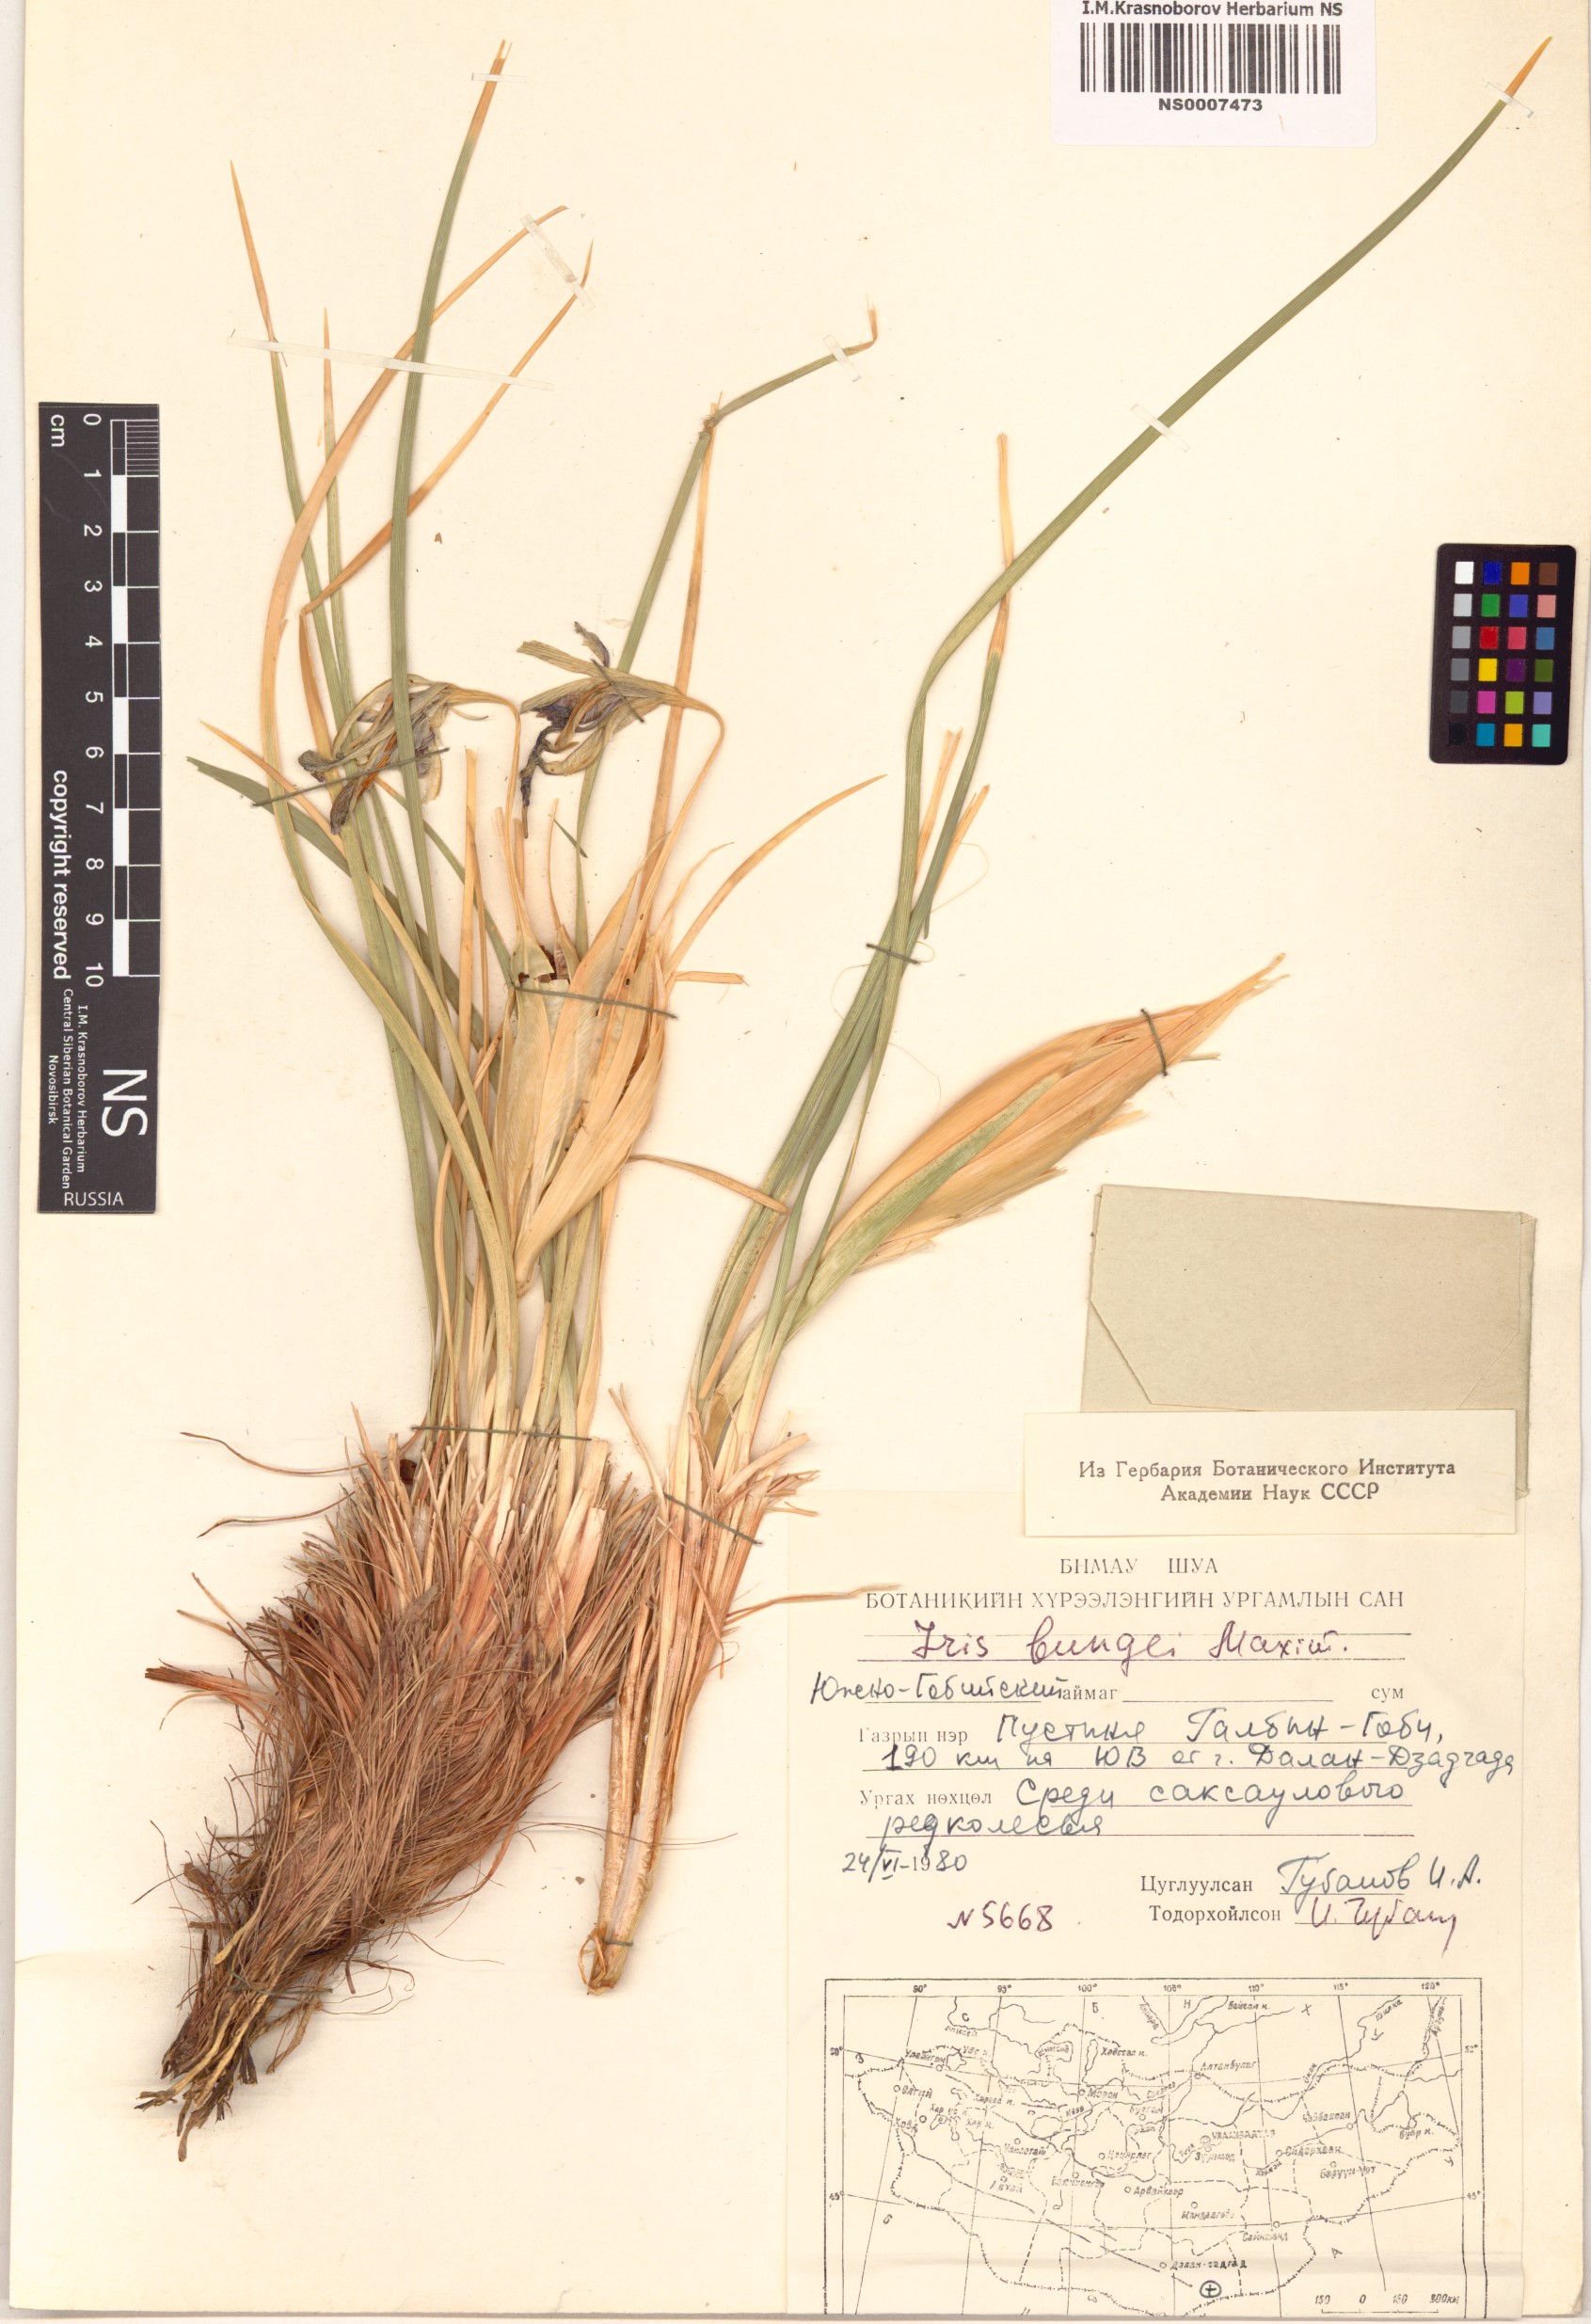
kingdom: Plantae
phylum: Tracheophyta
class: Liliopsida
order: Asparagales
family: Iridaceae
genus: Iris
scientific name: Iris bungei
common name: Large-bract iris
